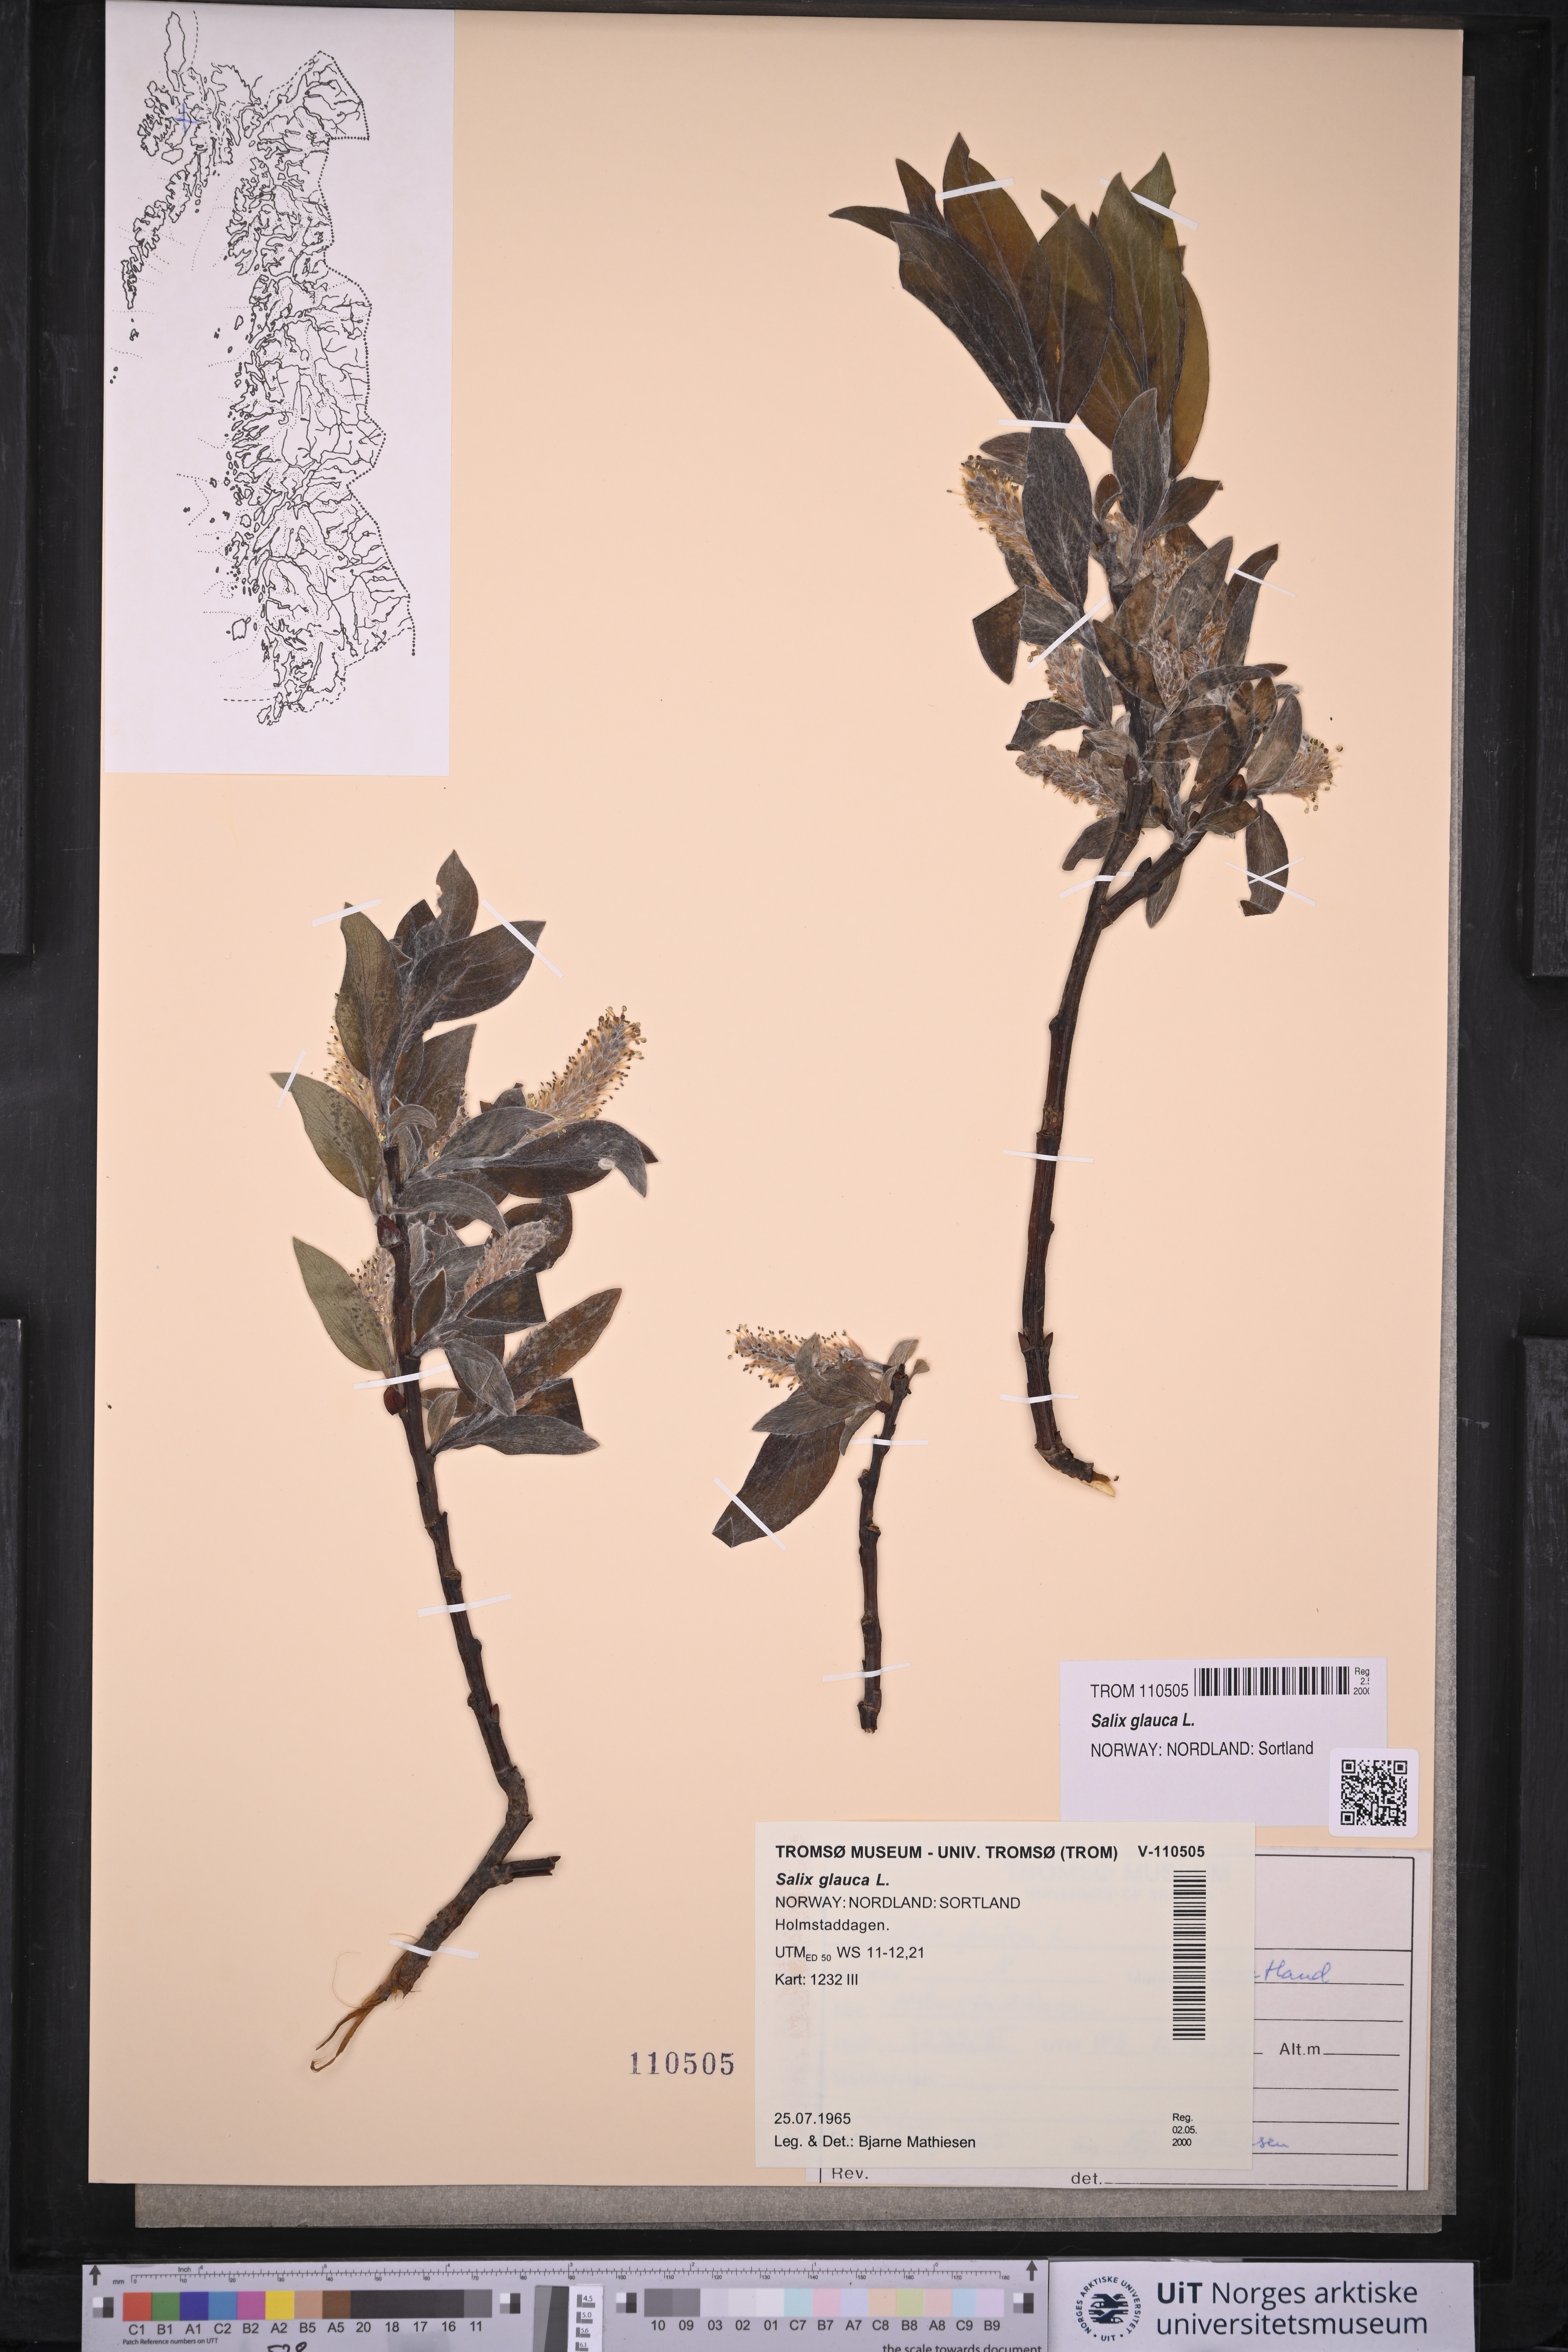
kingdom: Plantae
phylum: Tracheophyta
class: Magnoliopsida
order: Malpighiales
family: Salicaceae
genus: Salix
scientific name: Salix glauca
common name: Glaucous willow
